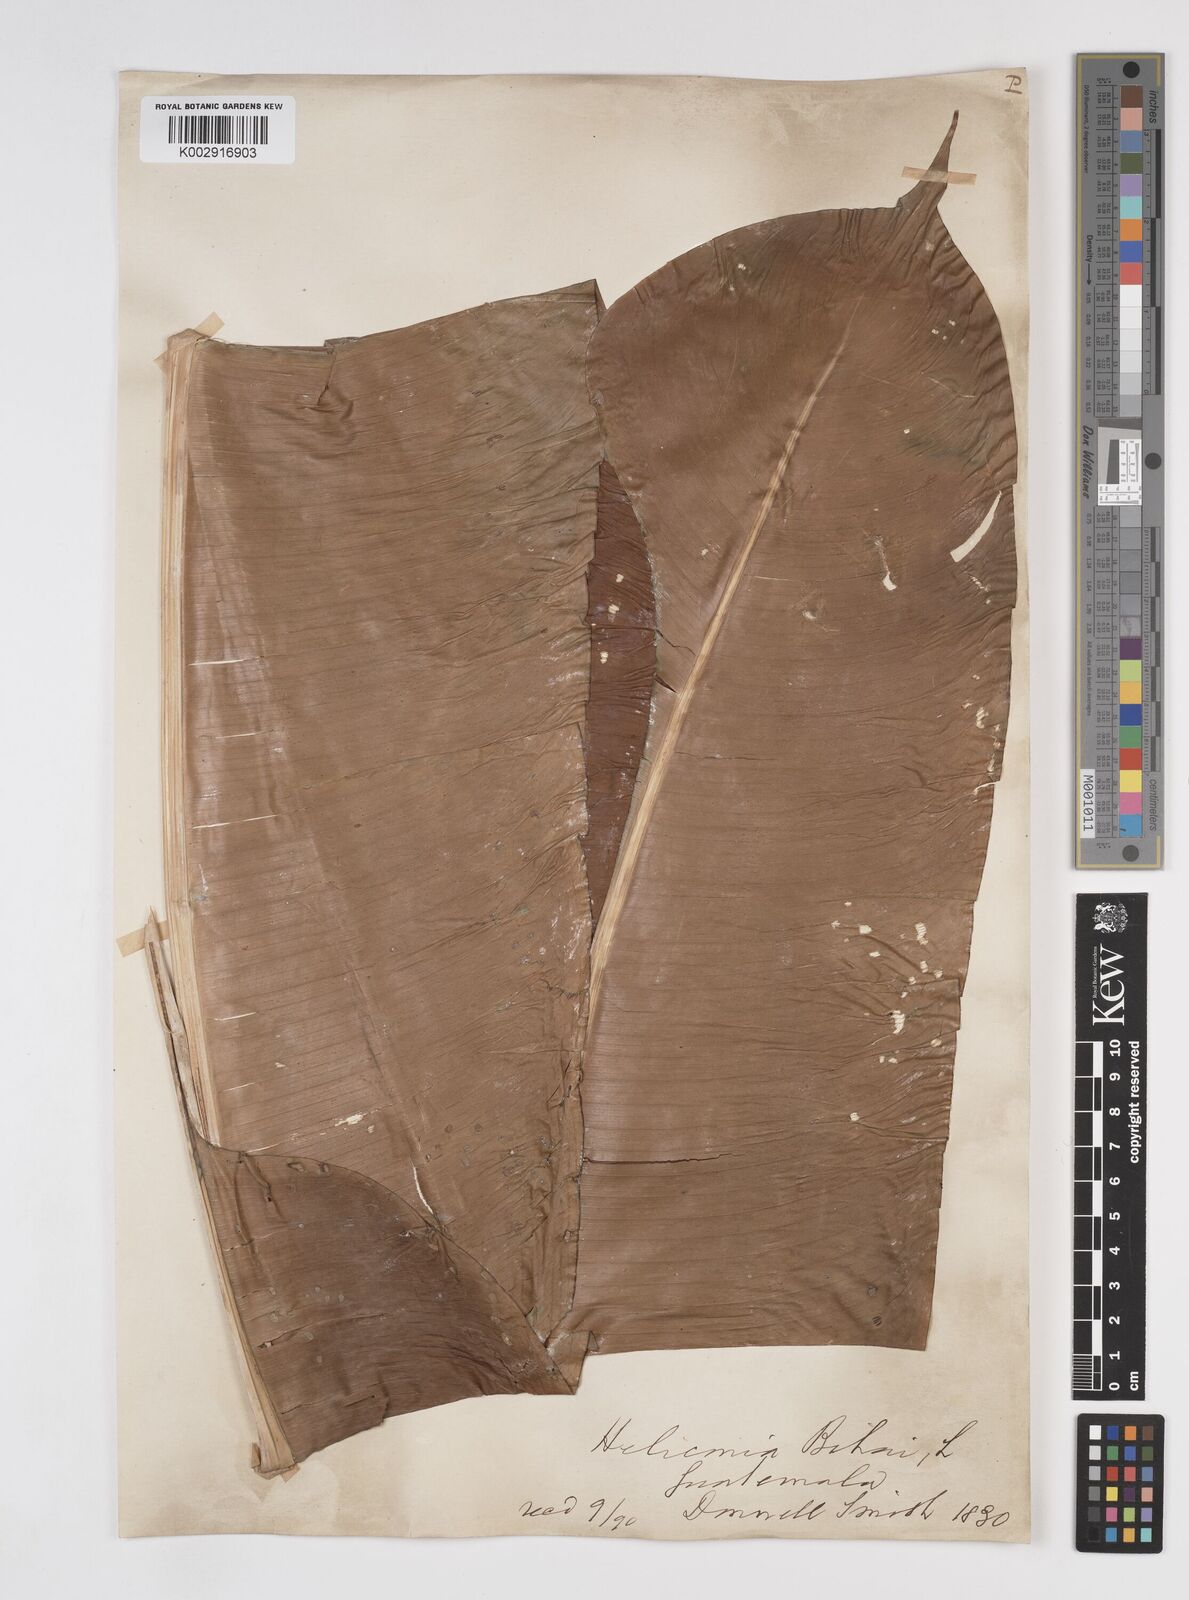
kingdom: Plantae
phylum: Tracheophyta
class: Liliopsida
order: Zingiberales
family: Heliconiaceae
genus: Heliconia
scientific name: Heliconia collinsiana
